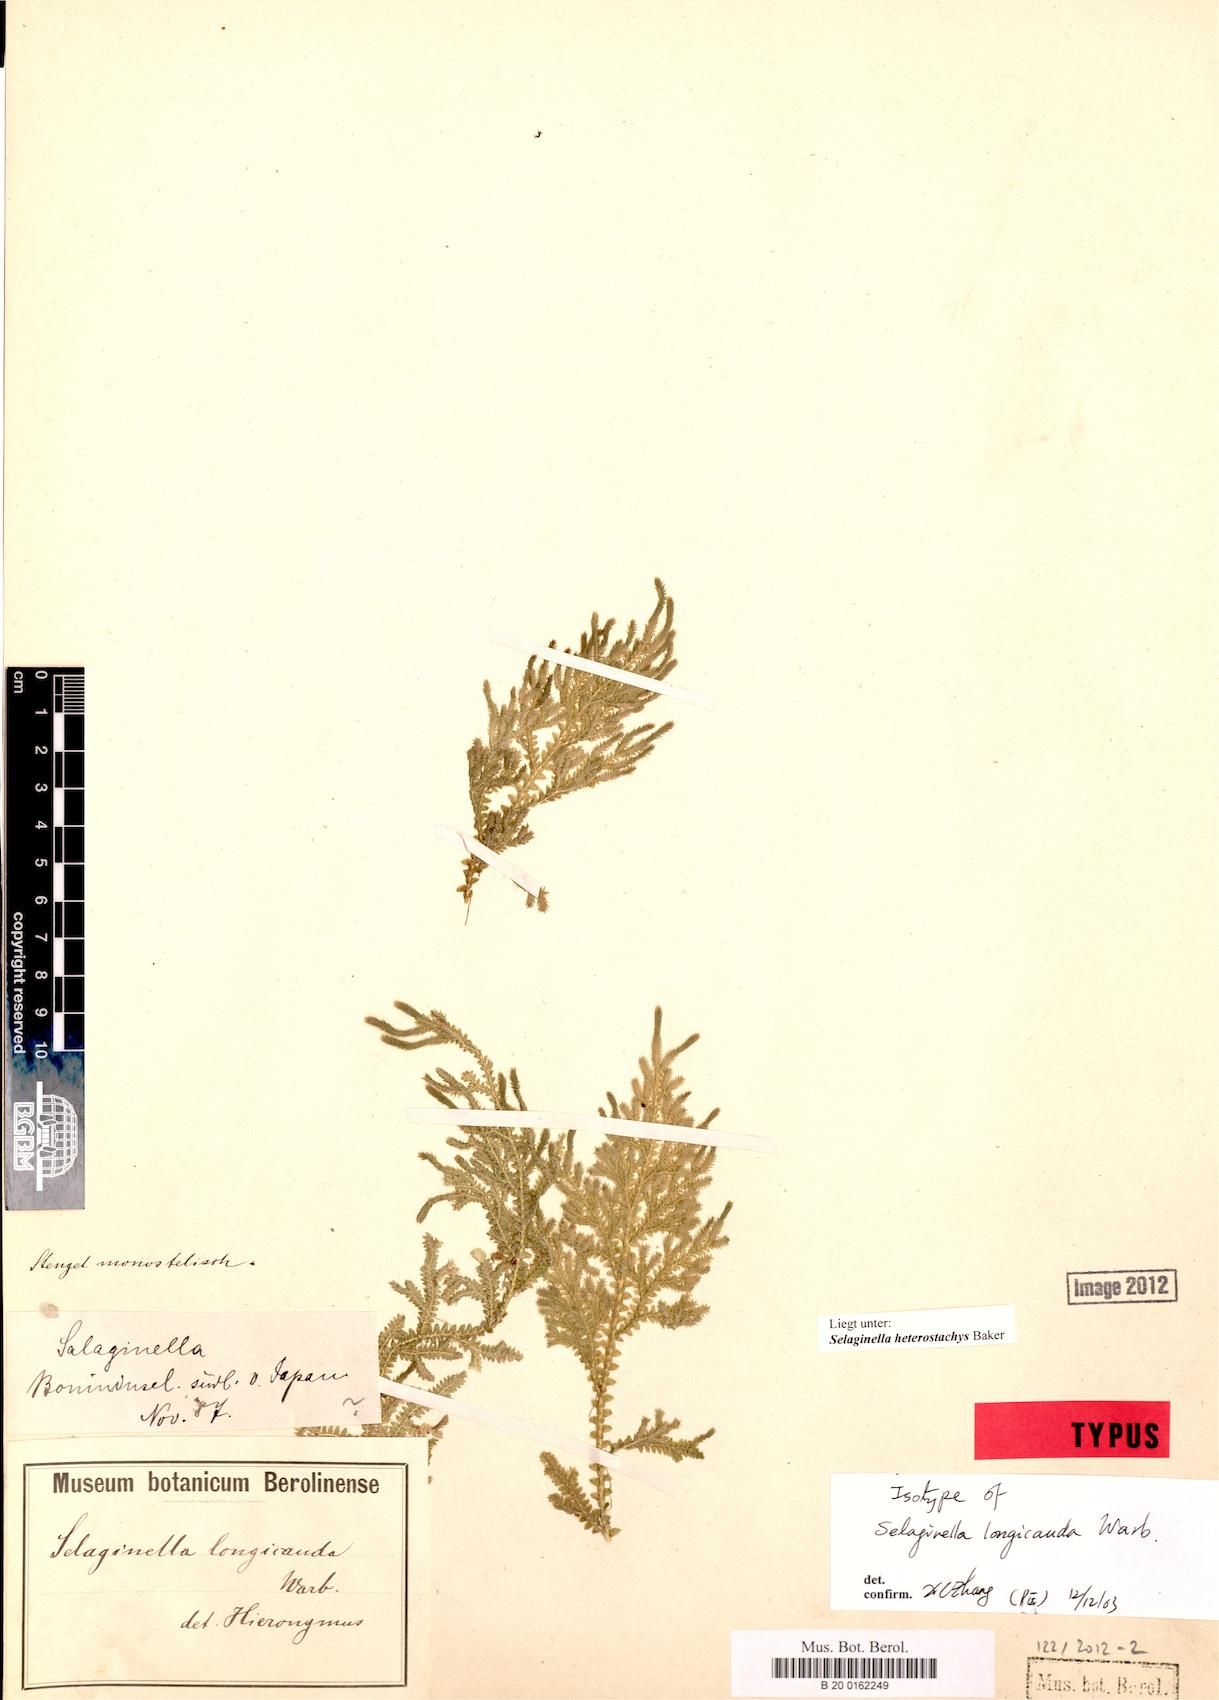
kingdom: Plantae
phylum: Tracheophyta
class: Lycopodiopsida
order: Selaginellales
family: Selaginellaceae
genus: Selaginella
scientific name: Selaginella heterostachys
